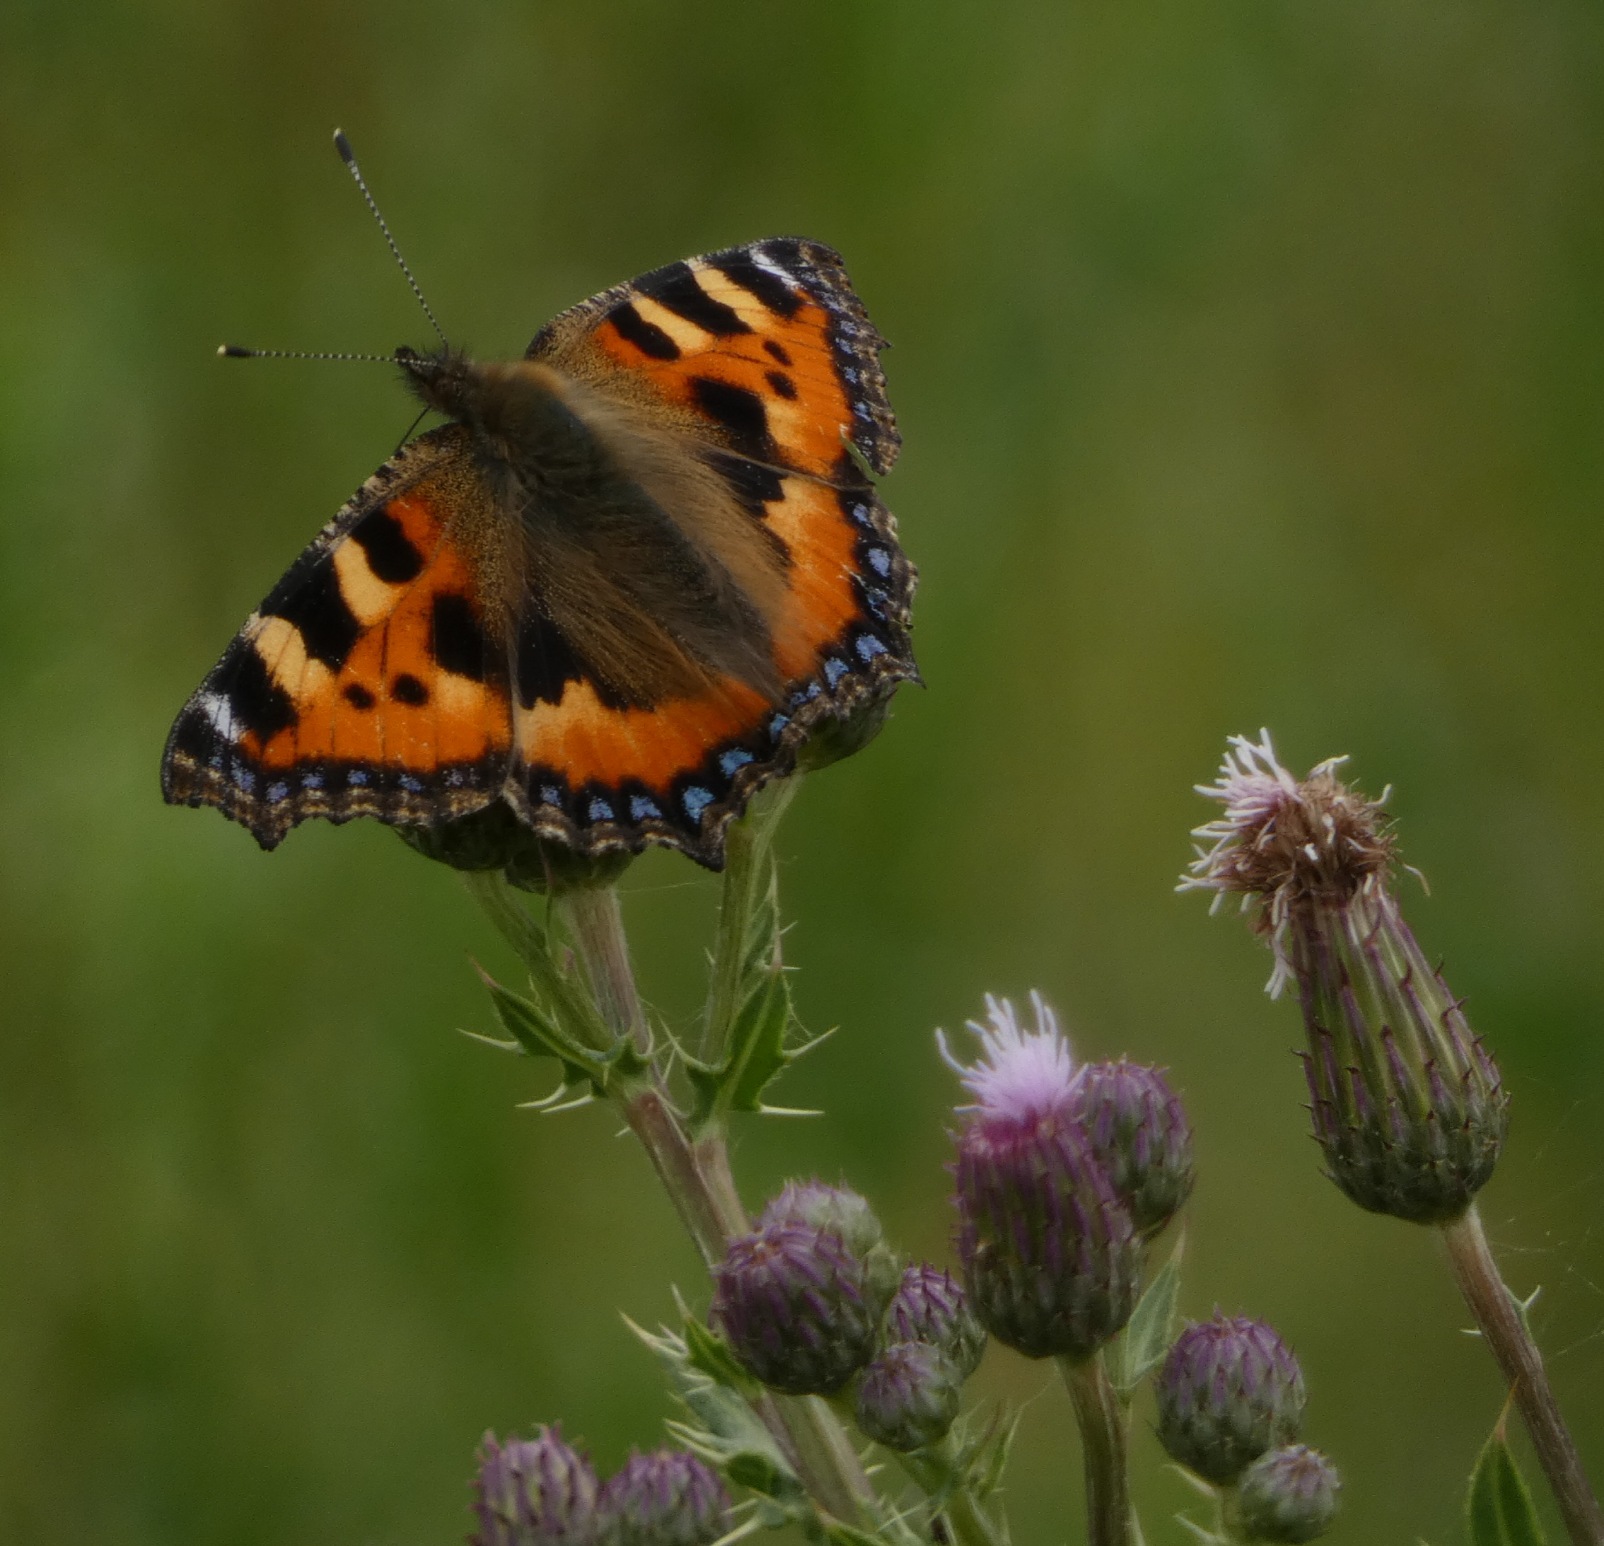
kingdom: Animalia
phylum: Arthropoda
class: Insecta
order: Lepidoptera
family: Nymphalidae
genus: Aglais
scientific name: Aglais urticae
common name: Nældens takvinge
